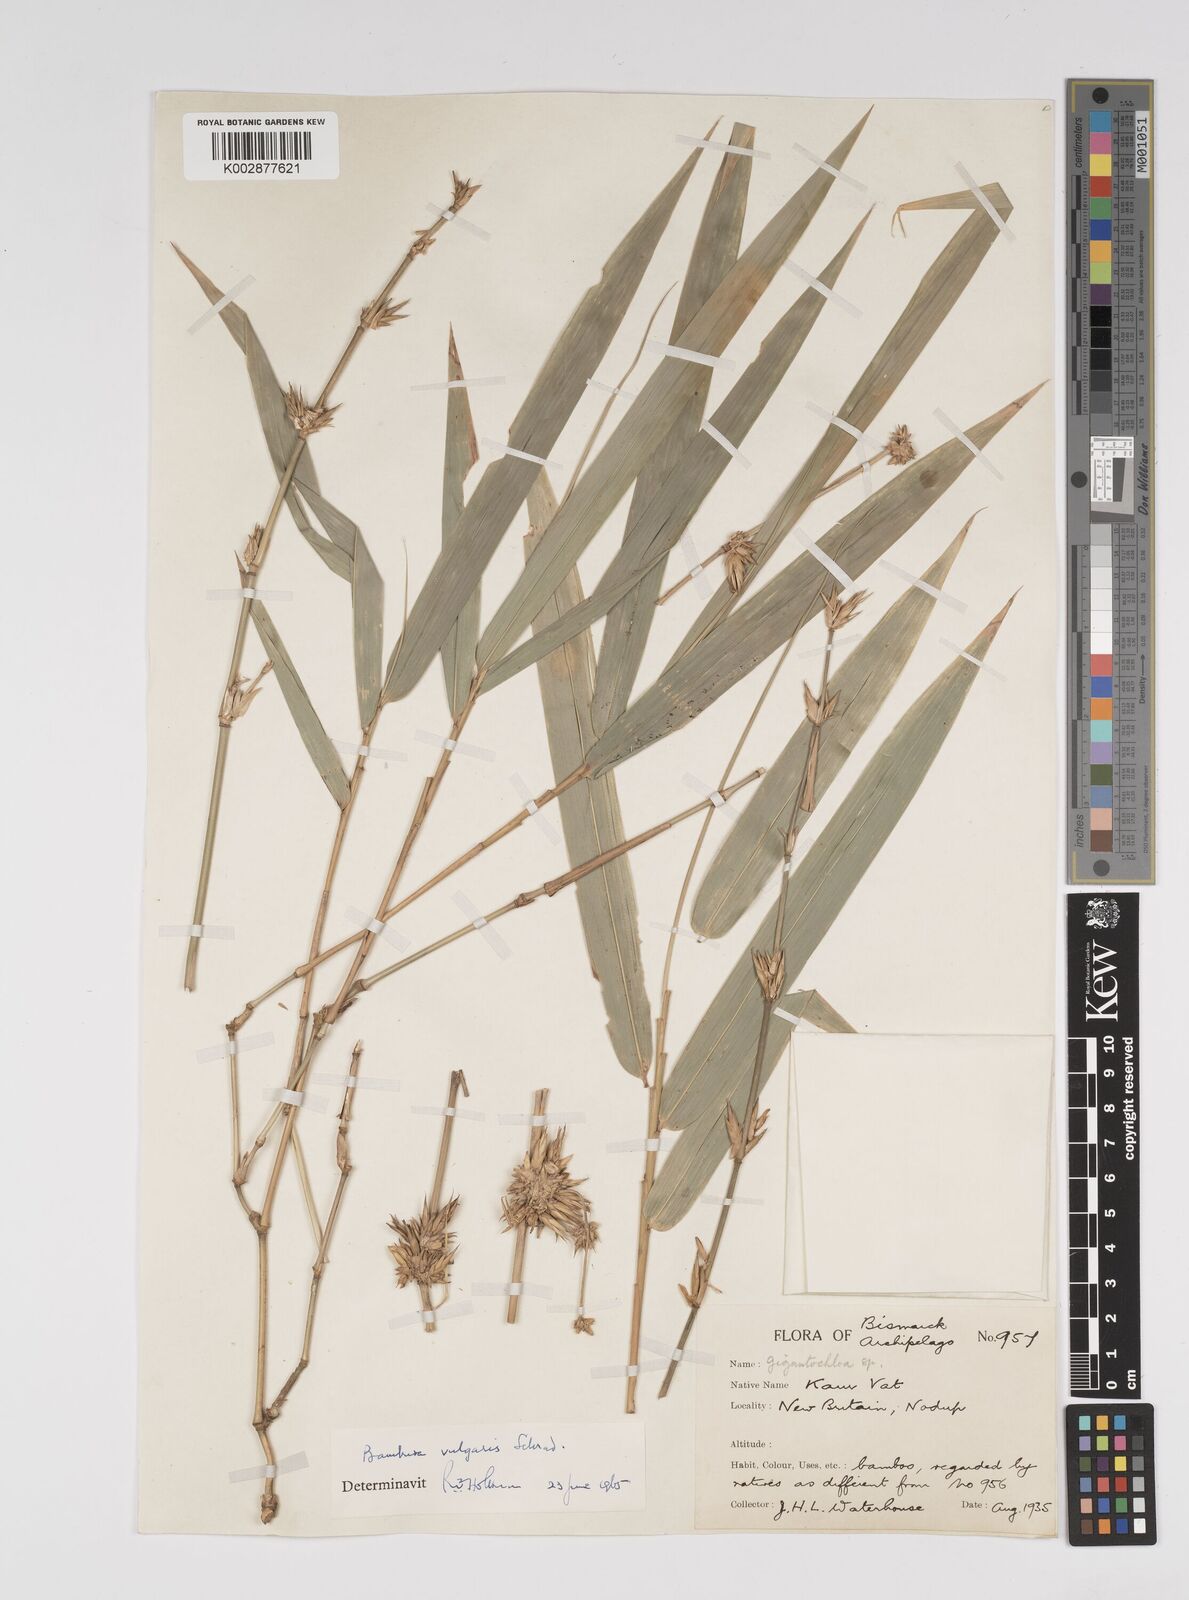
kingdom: Plantae
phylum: Tracheophyta
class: Liliopsida
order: Poales
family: Poaceae
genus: Bambusa
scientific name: Bambusa balcooa
